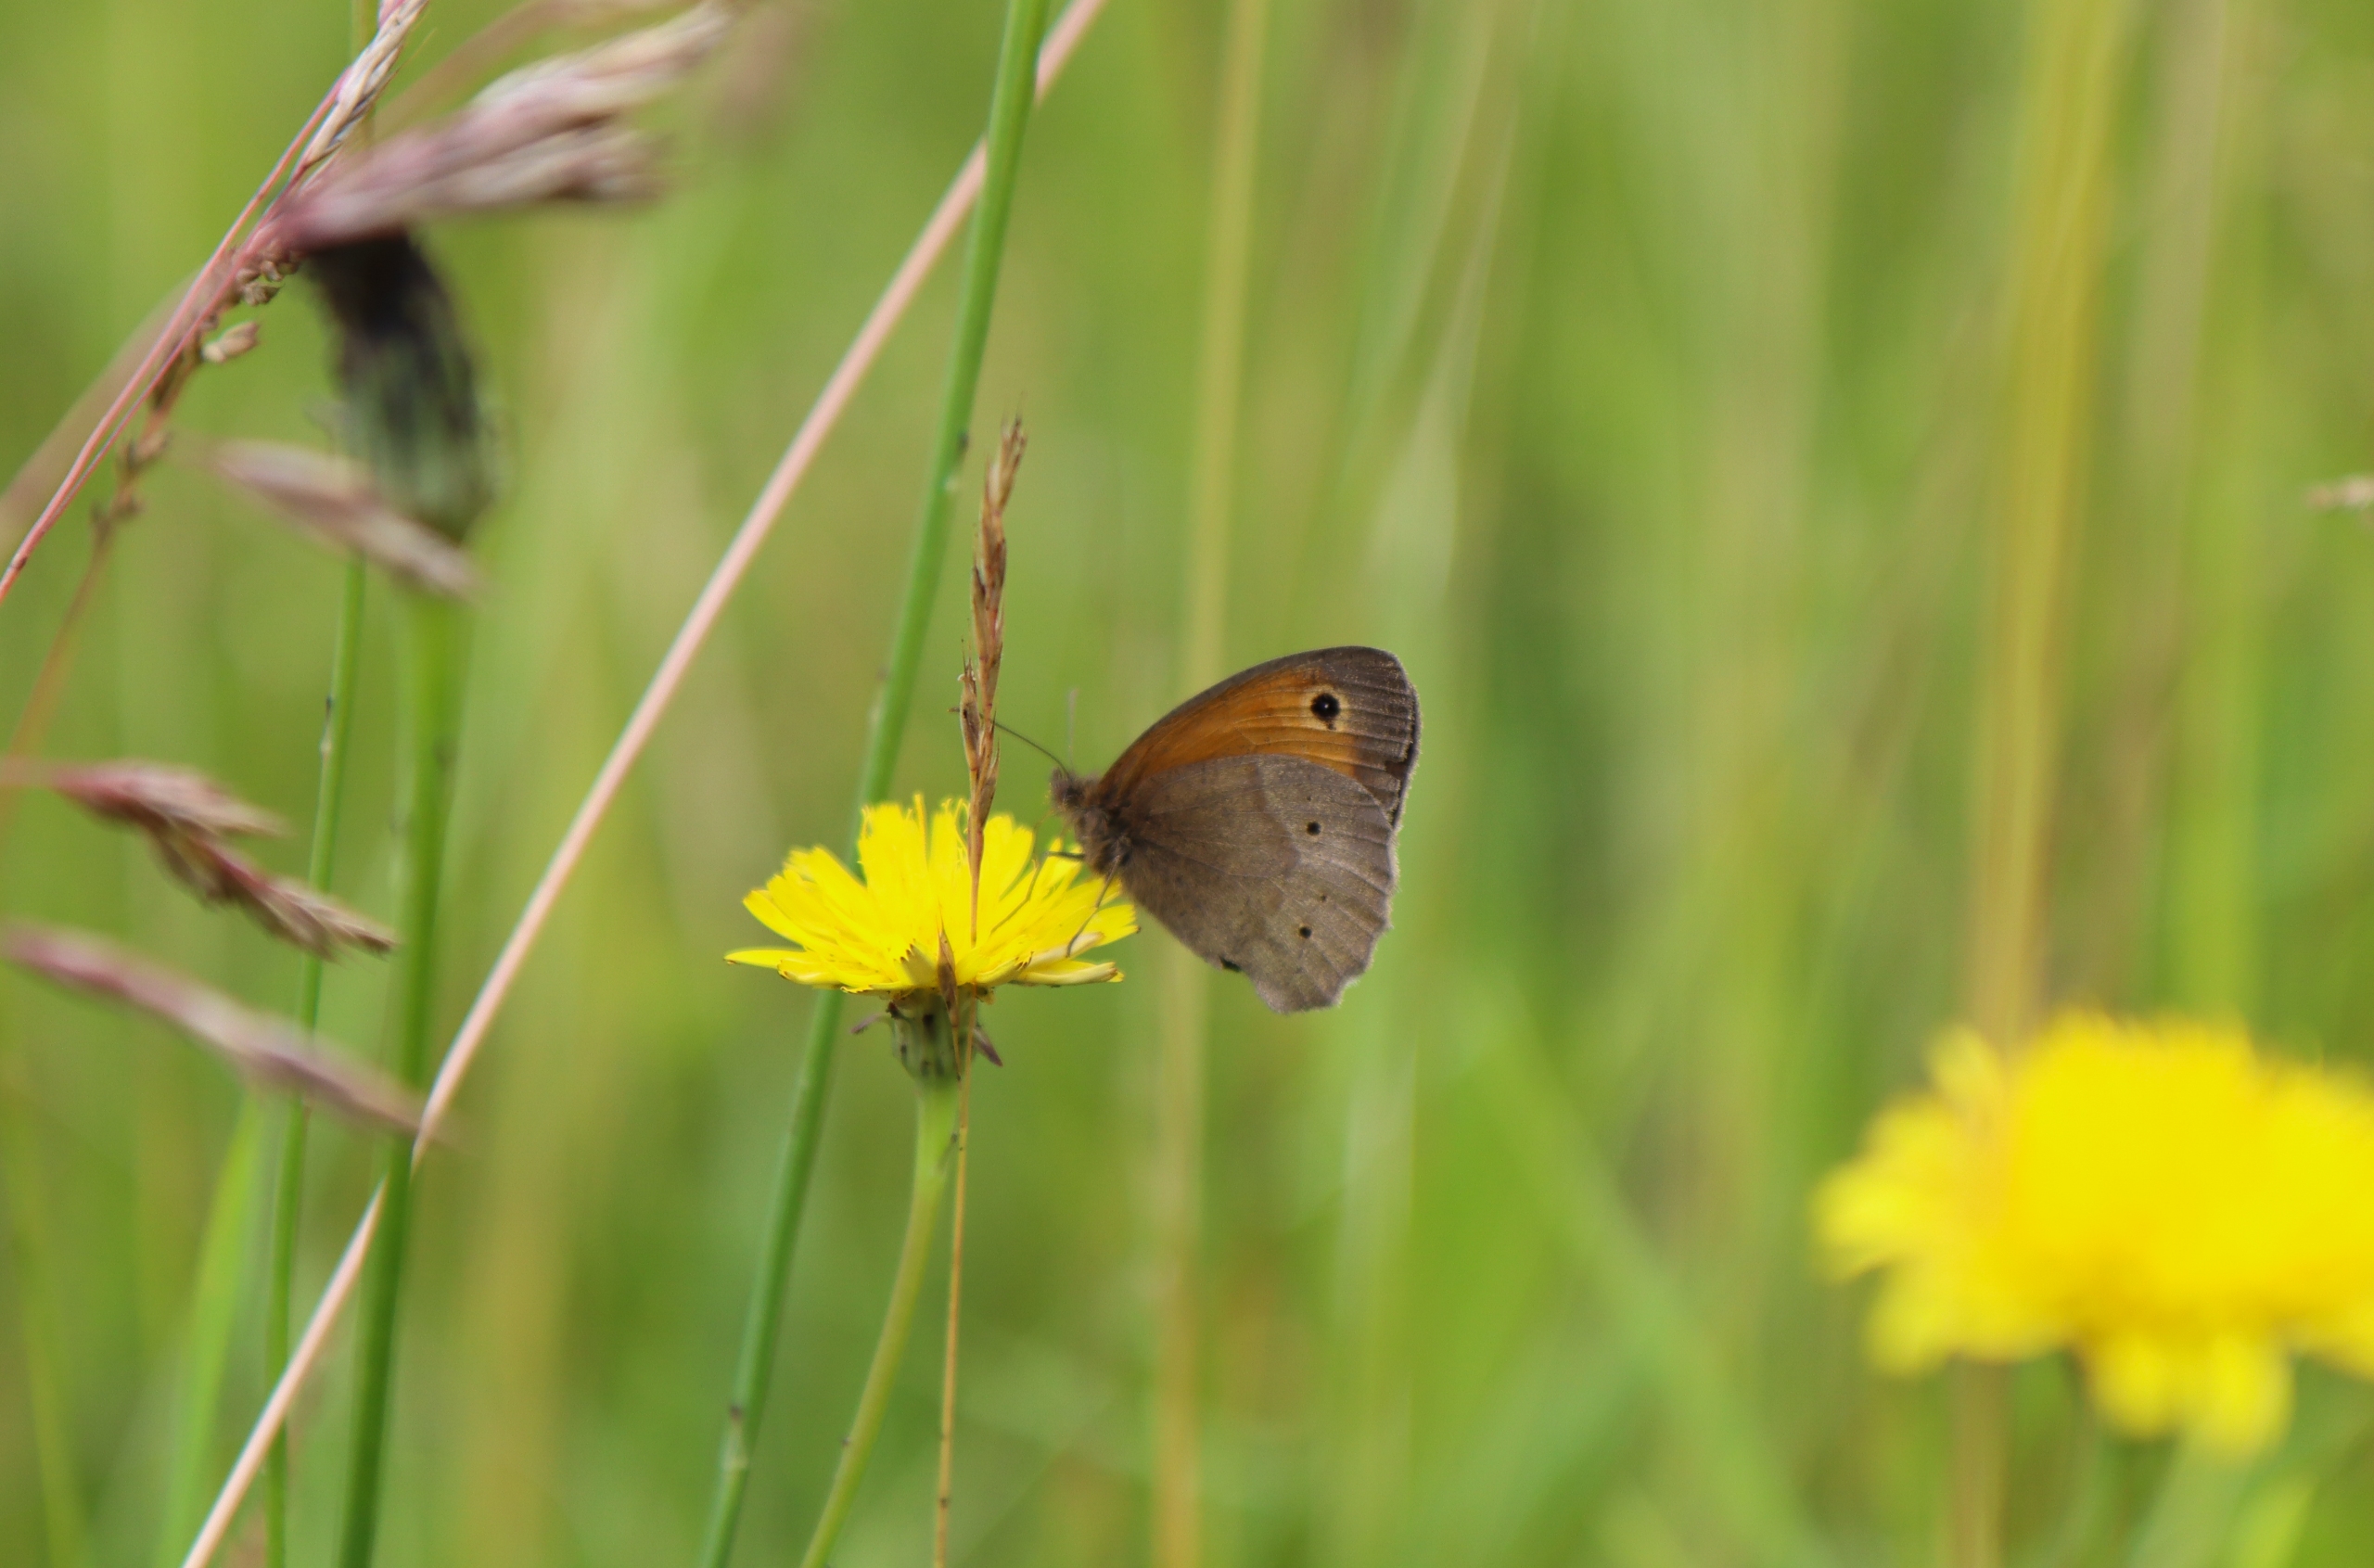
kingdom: Animalia
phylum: Arthropoda
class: Insecta
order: Lepidoptera
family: Nymphalidae
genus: Maniola
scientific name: Maniola jurtina
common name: Græsrandøje
